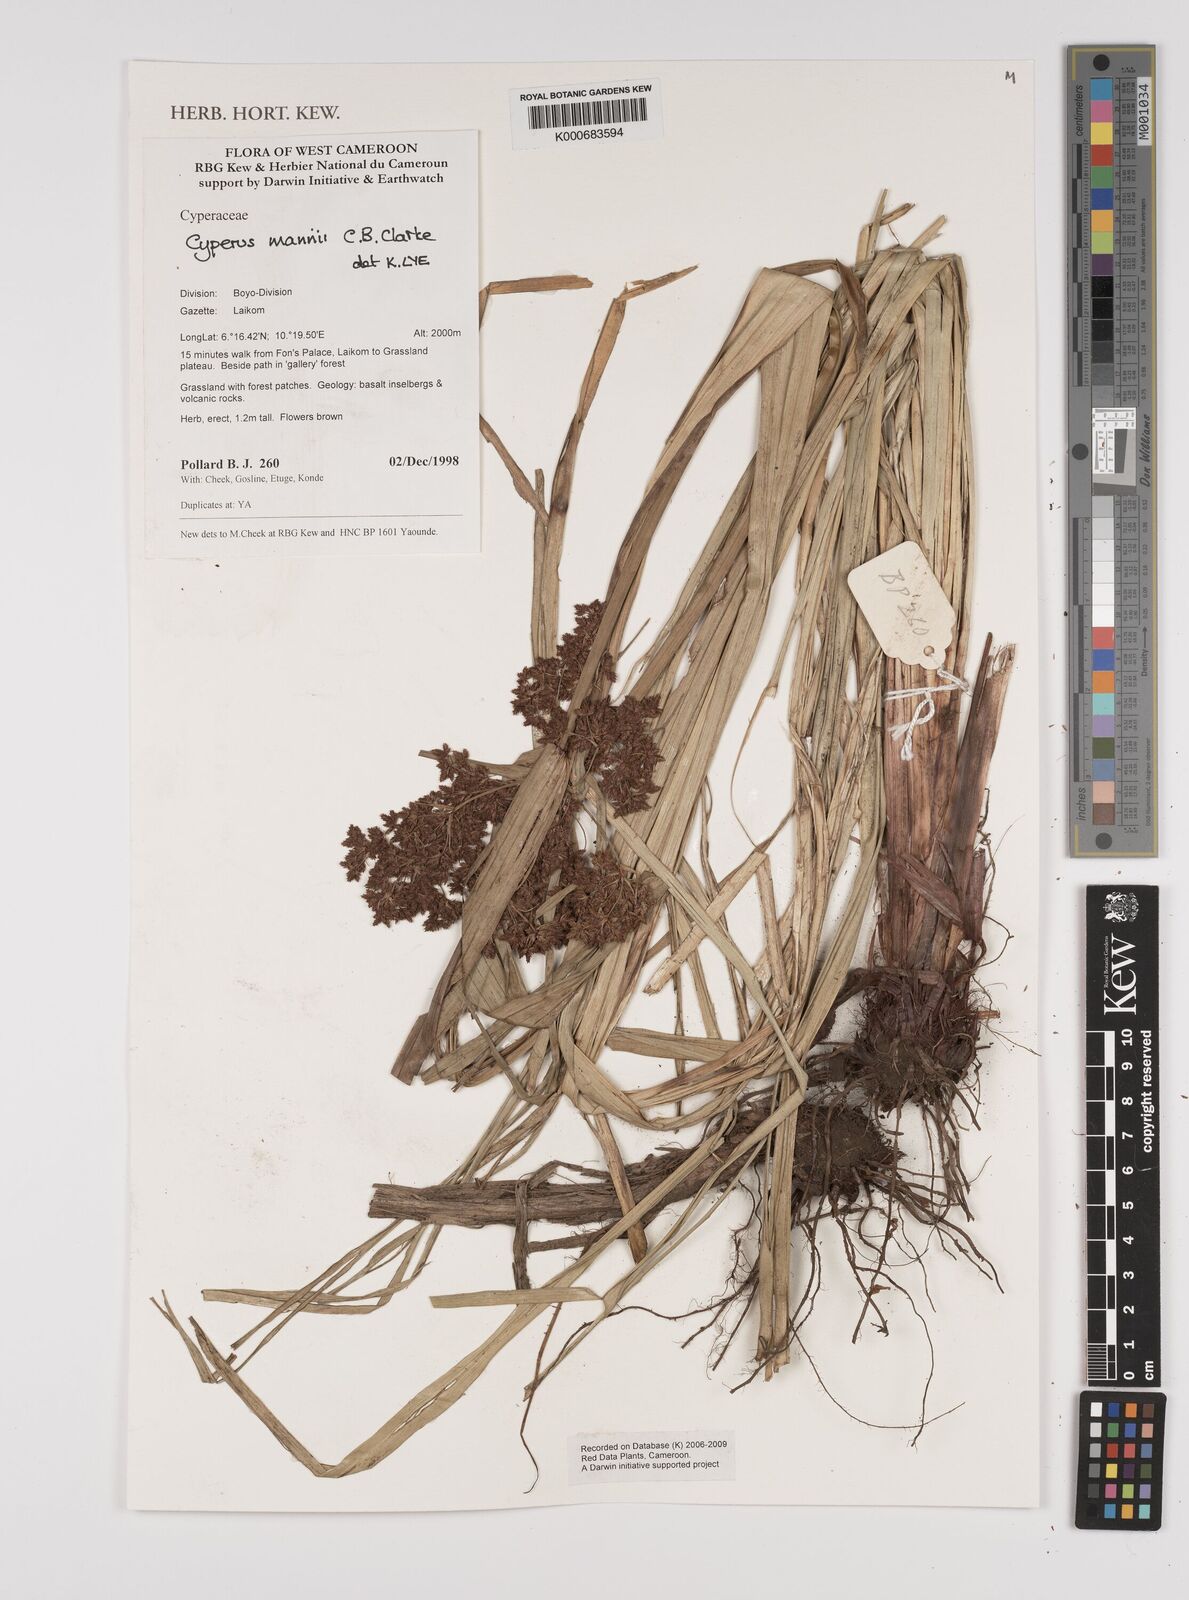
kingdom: Plantae
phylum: Tracheophyta
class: Liliopsida
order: Poales
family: Cyperaceae
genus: Cyperus
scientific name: Cyperus baronii
